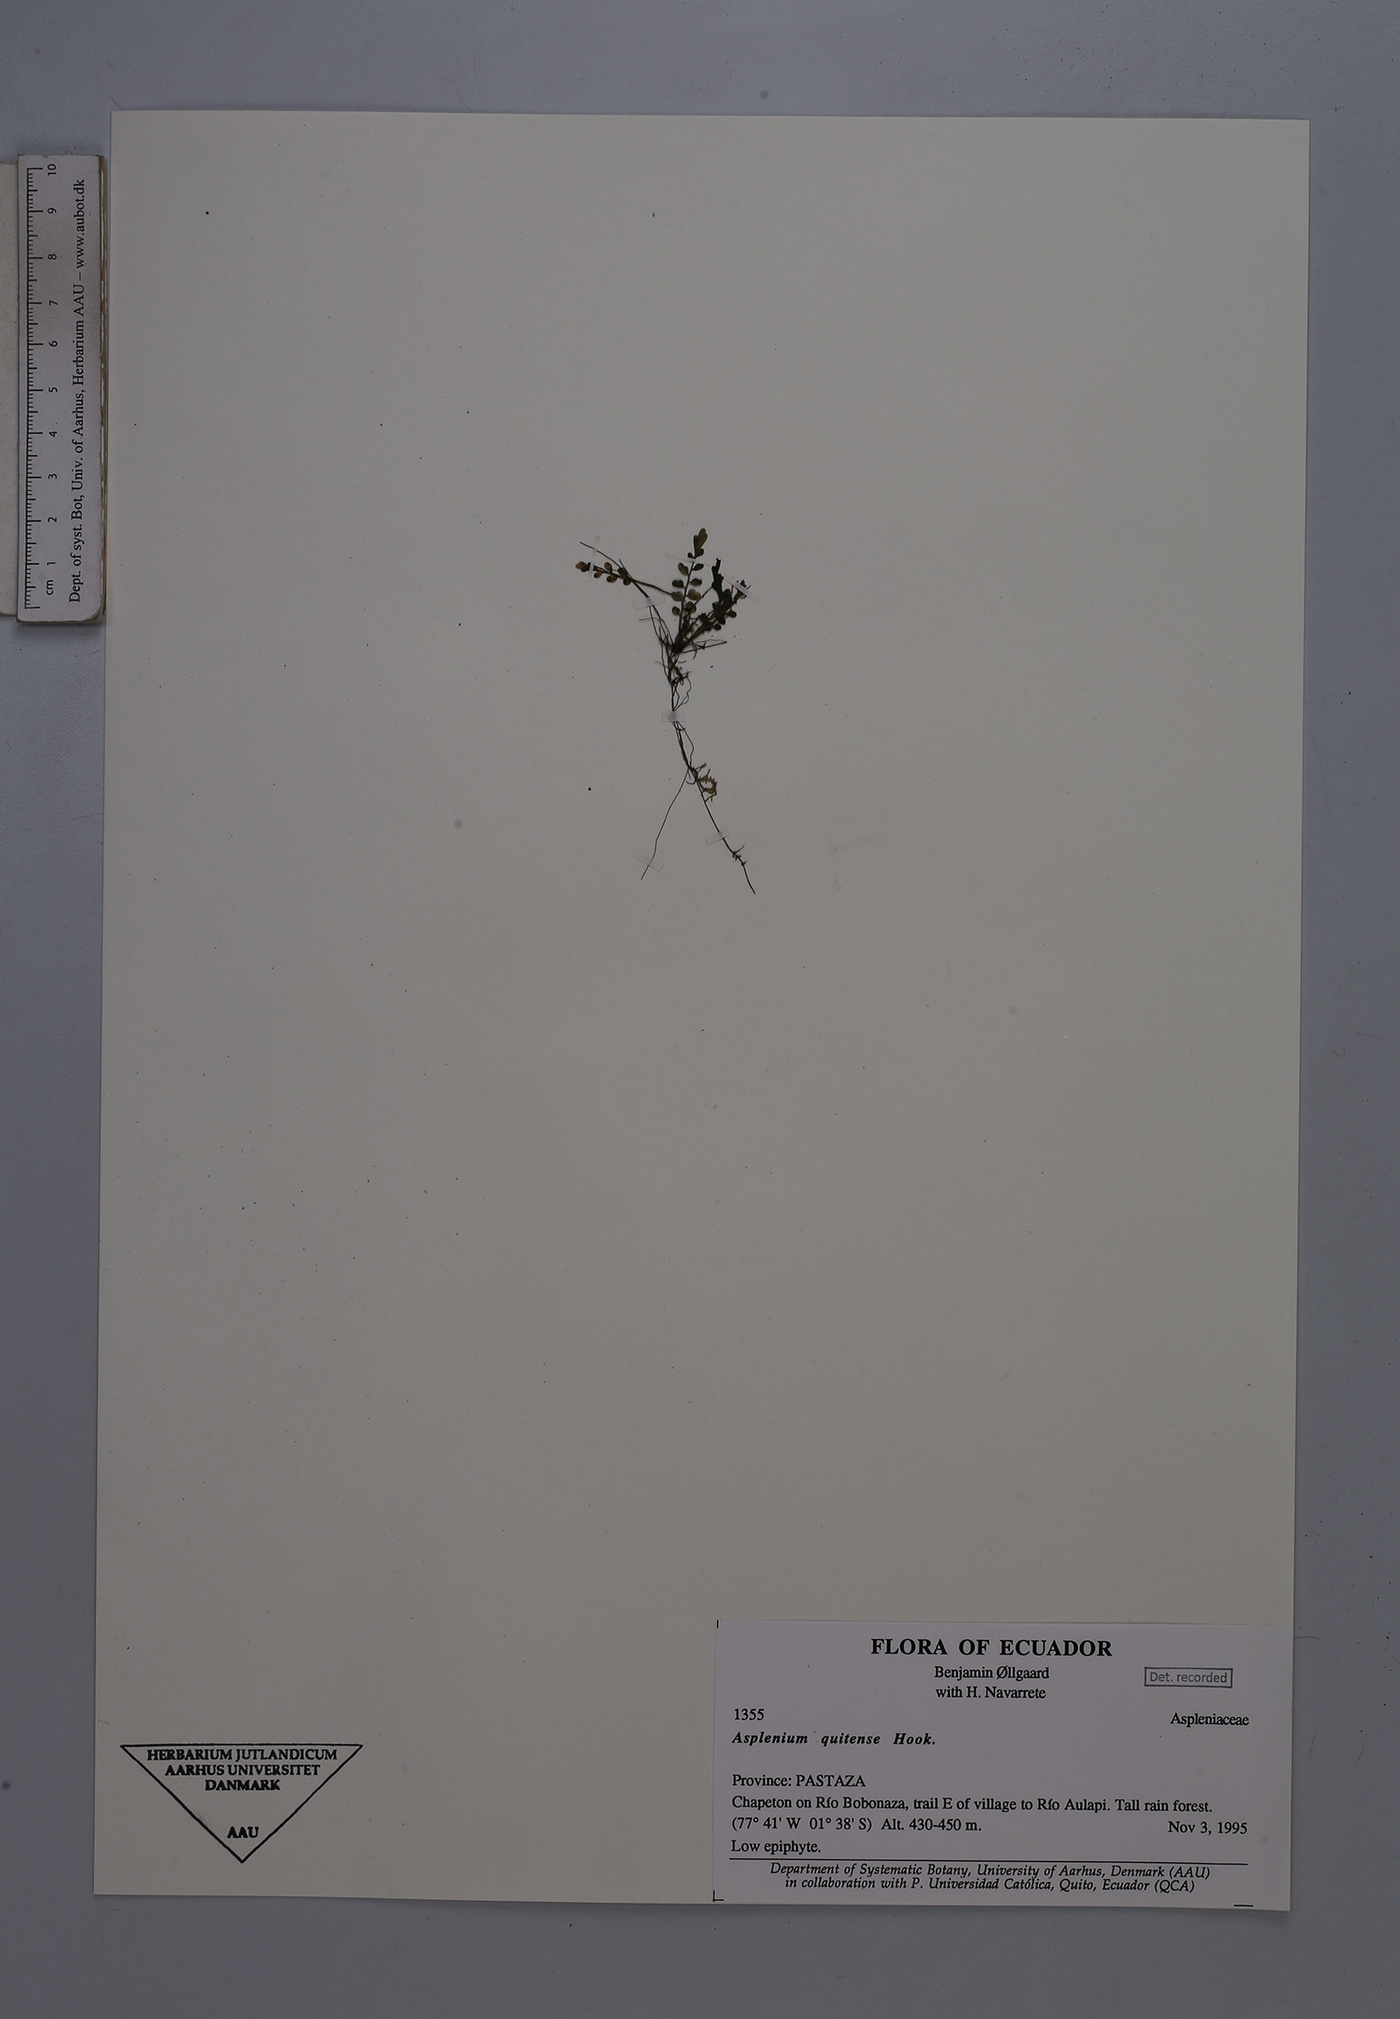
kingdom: Plantae
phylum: Tracheophyta
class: Polypodiopsida
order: Polypodiales
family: Aspleniaceae
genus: Asplenium
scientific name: Asplenium quitense
